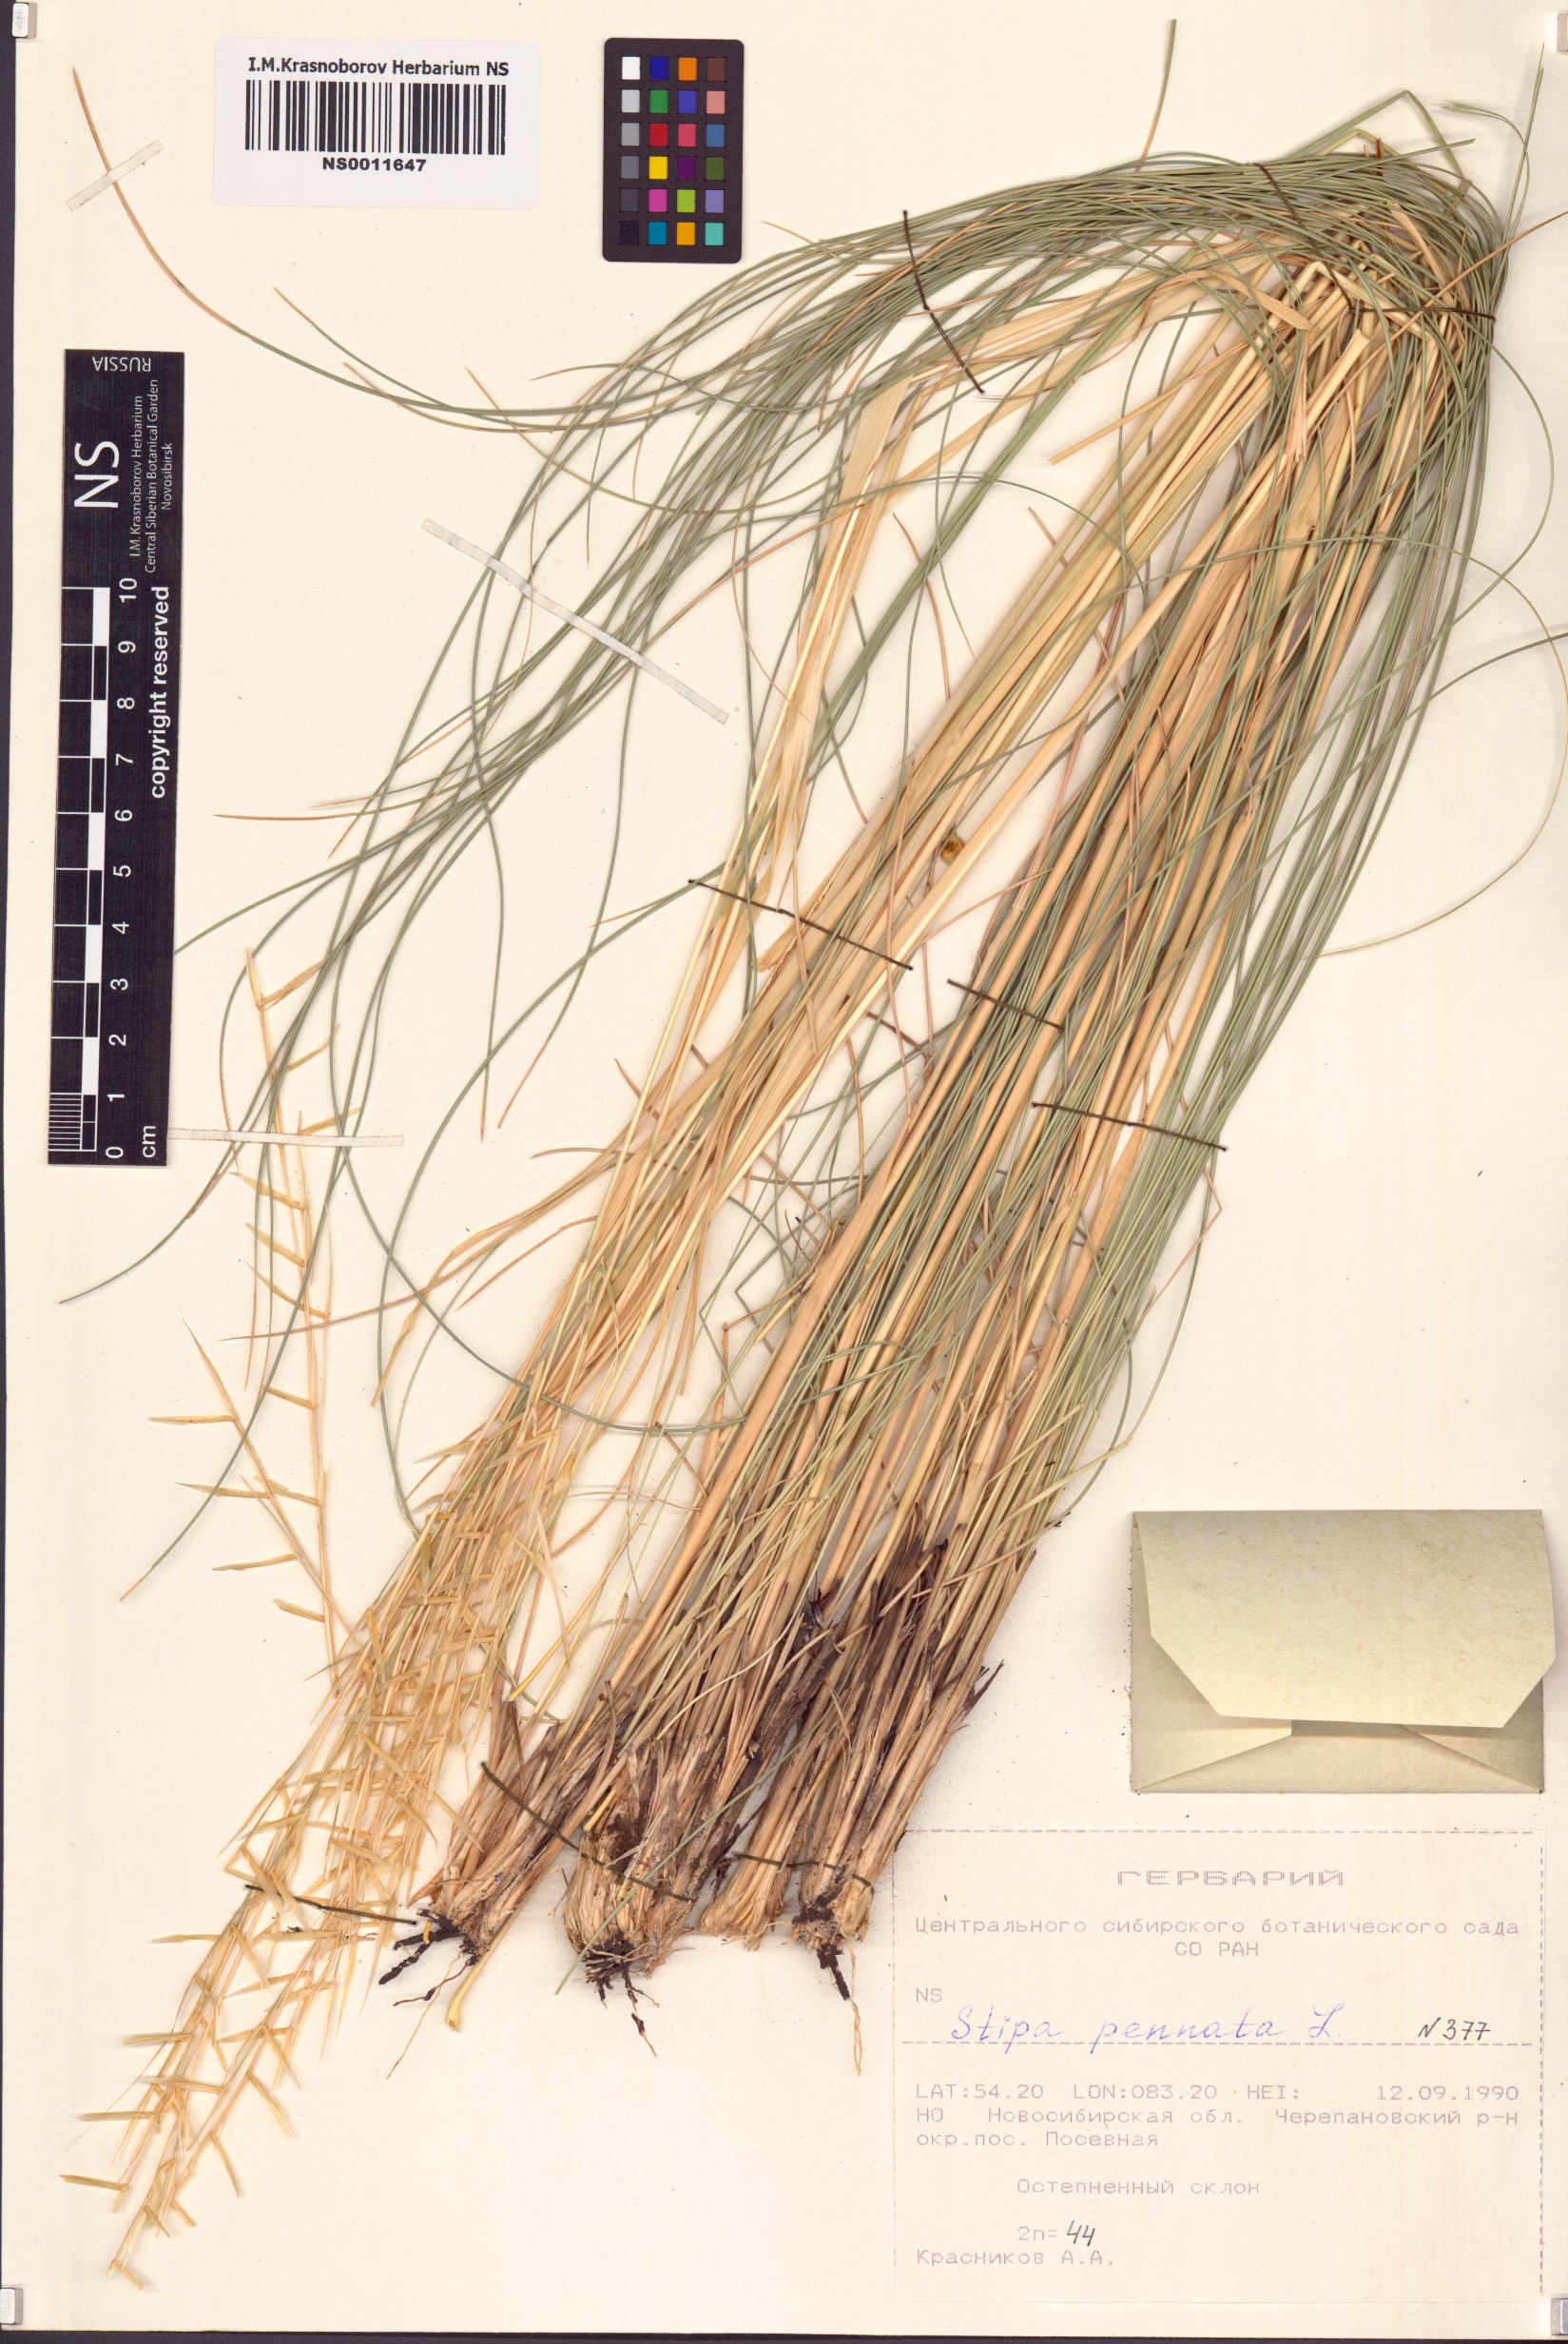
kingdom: Plantae
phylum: Tracheophyta
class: Liliopsida
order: Poales
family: Poaceae
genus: Stipa
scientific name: Stipa pennata
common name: European feather grass
